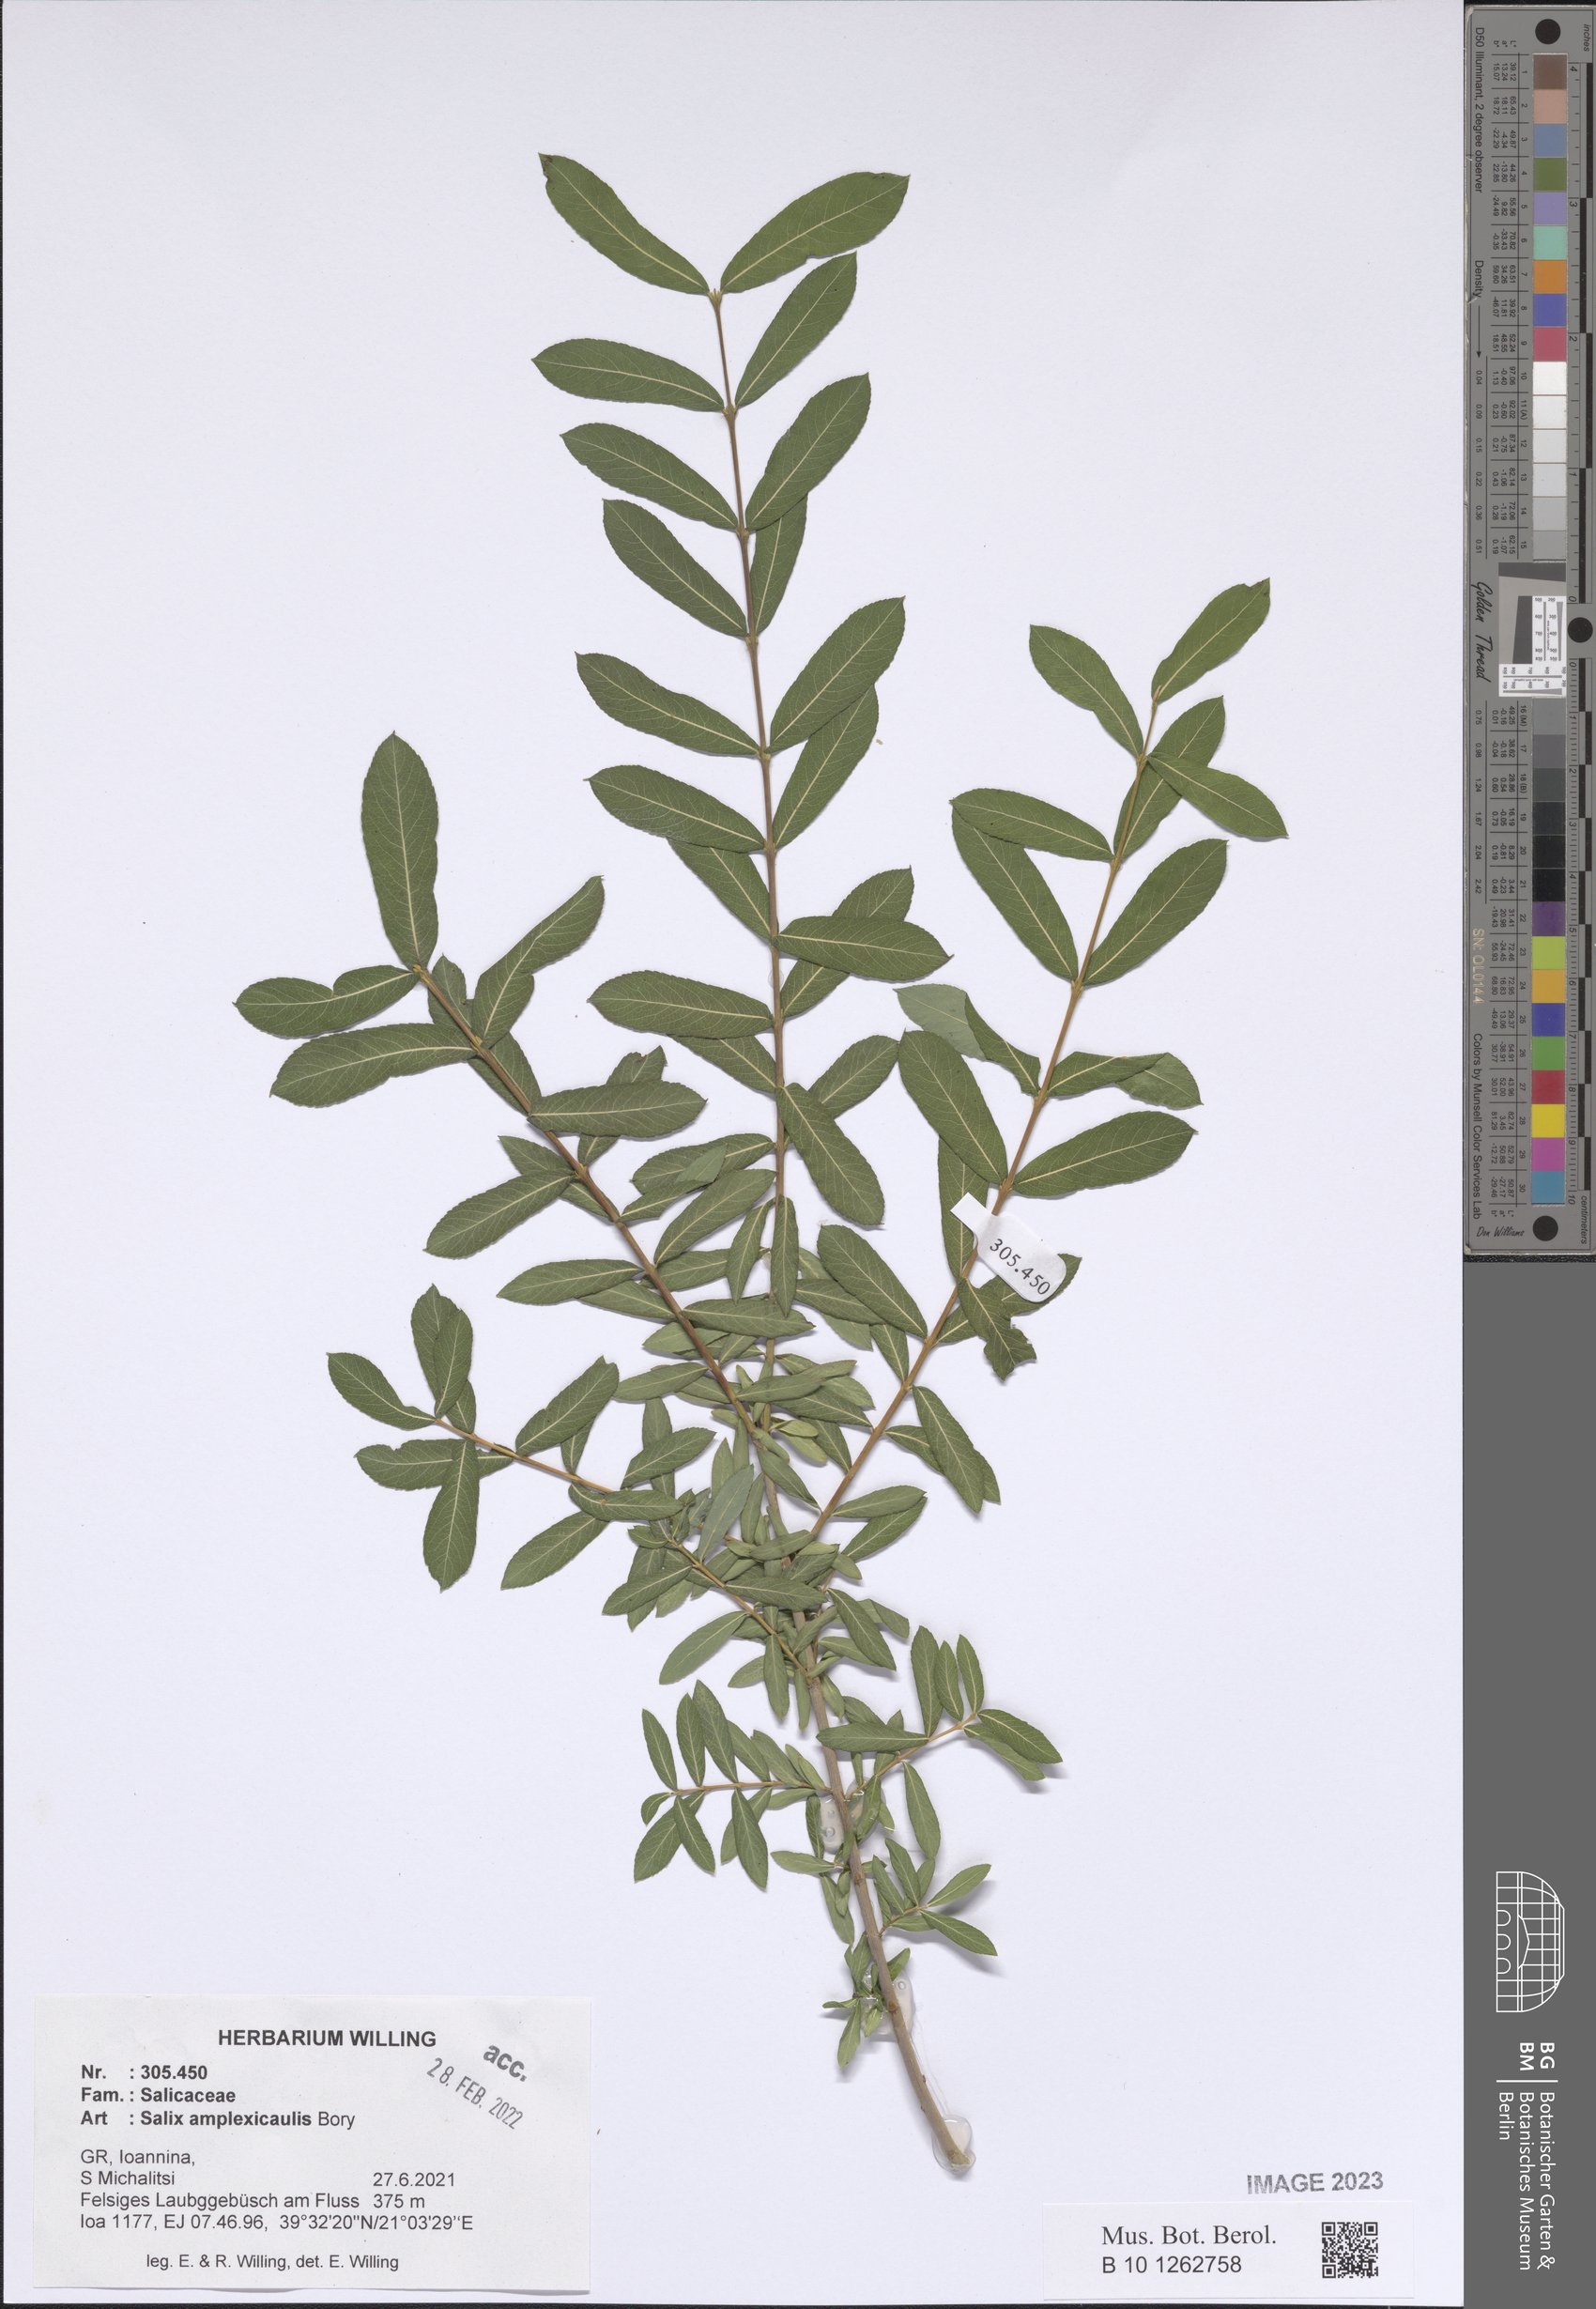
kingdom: Plantae
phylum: Tracheophyta
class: Magnoliopsida
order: Malpighiales
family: Salicaceae
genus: Salix
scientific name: Salix amplexicaulis
